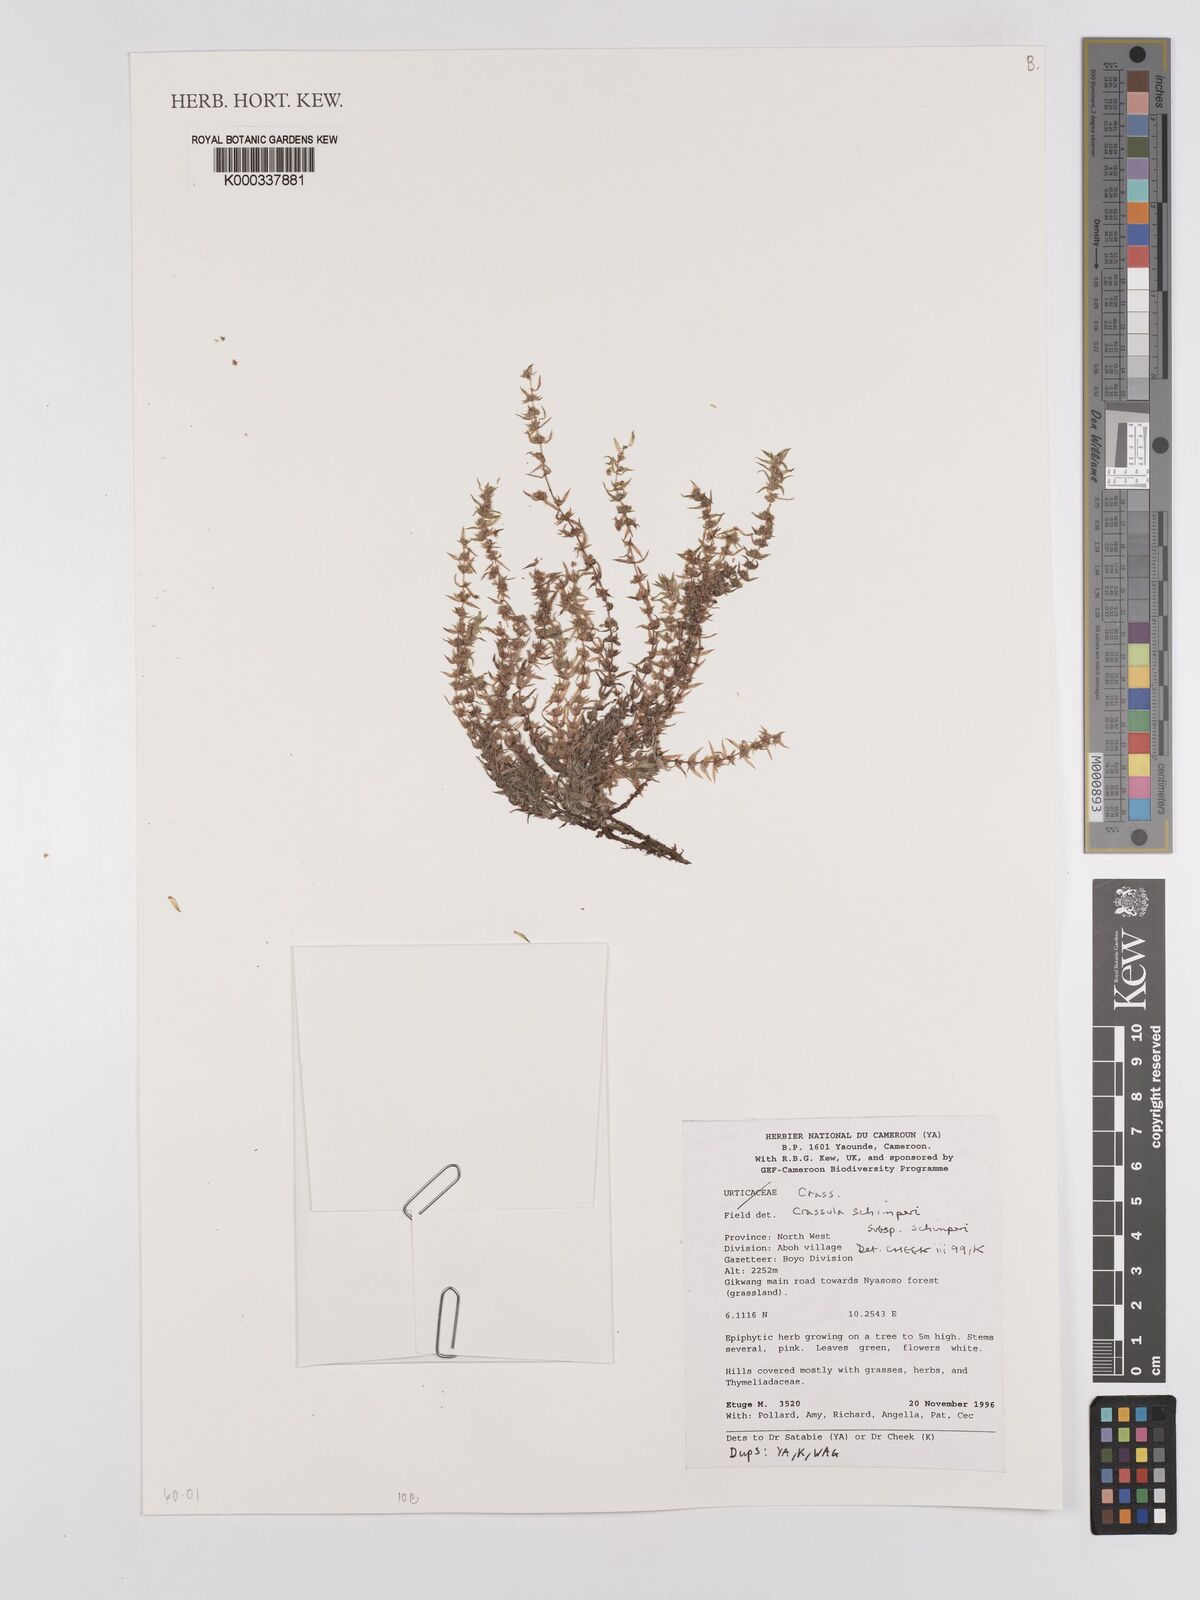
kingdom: Plantae
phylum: Tracheophyta
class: Magnoliopsida
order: Saxifragales
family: Crassulaceae
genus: Crassula
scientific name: Crassula vaginata
